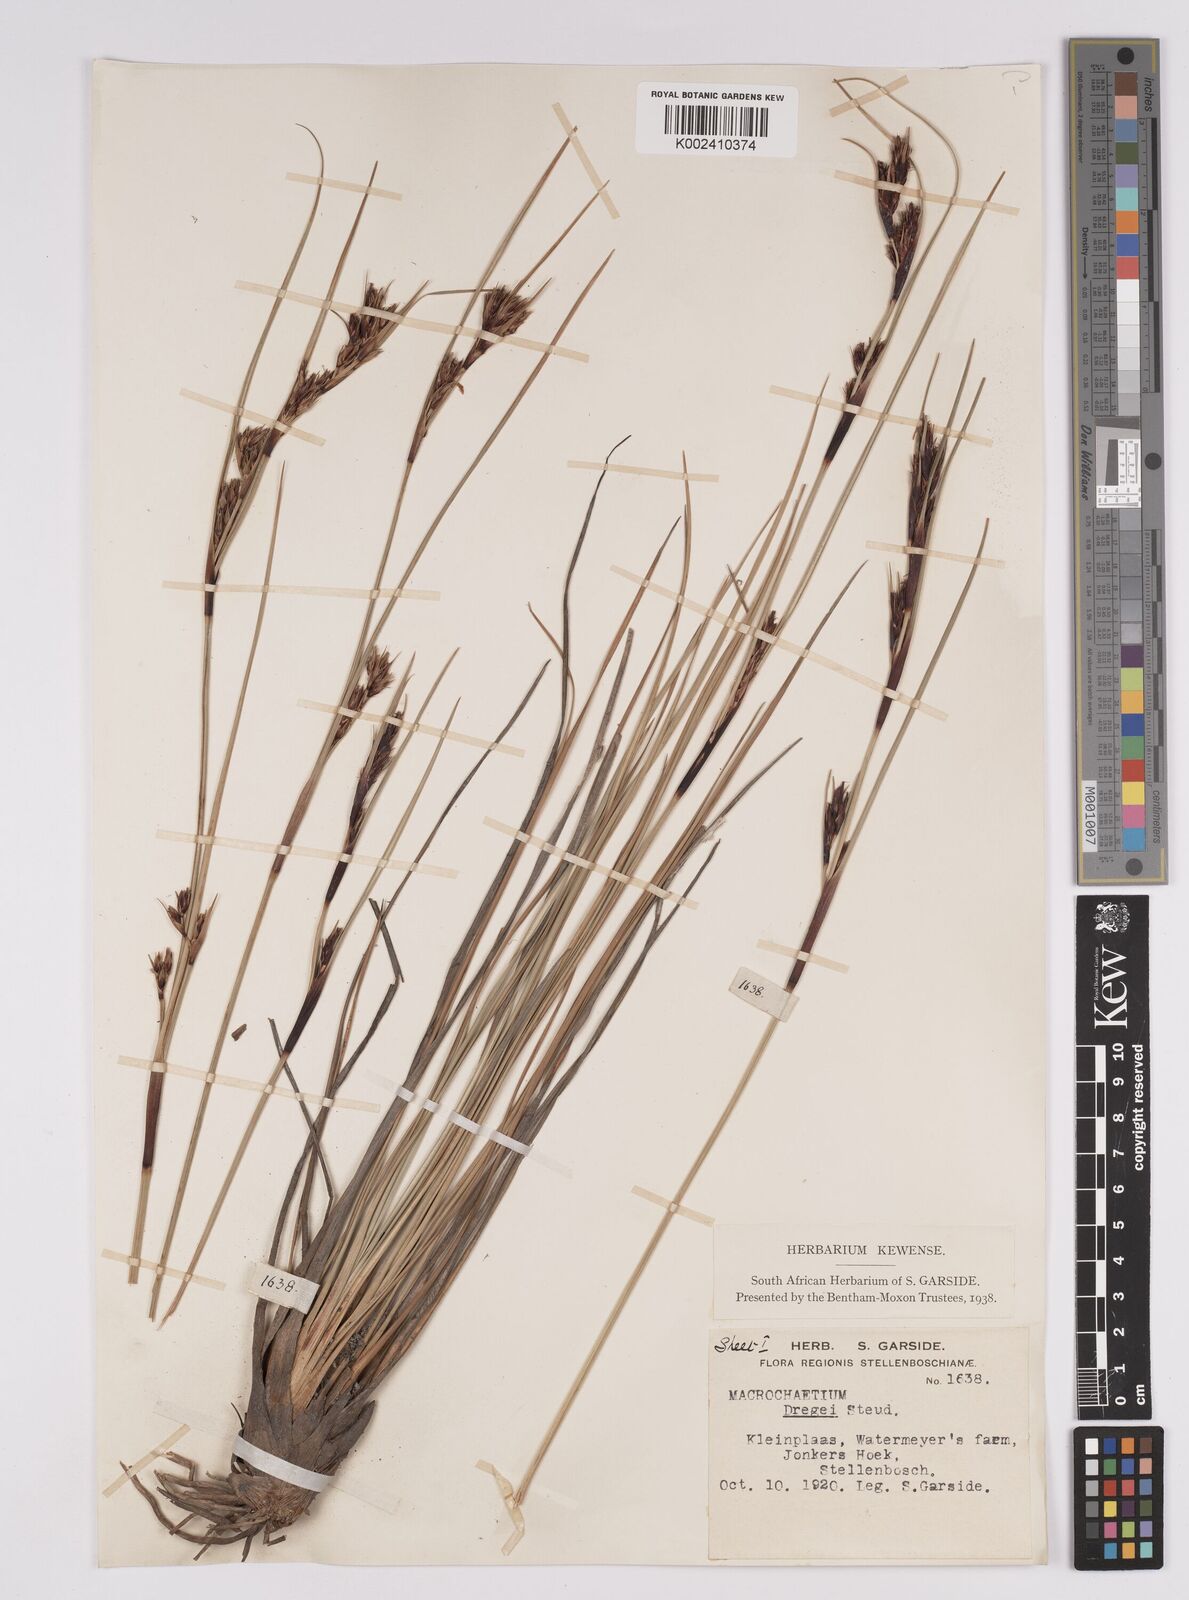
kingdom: Plantae
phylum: Tracheophyta
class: Liliopsida
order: Poales
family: Cyperaceae
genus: Cyathocoma
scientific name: Cyathocoma hexandra
